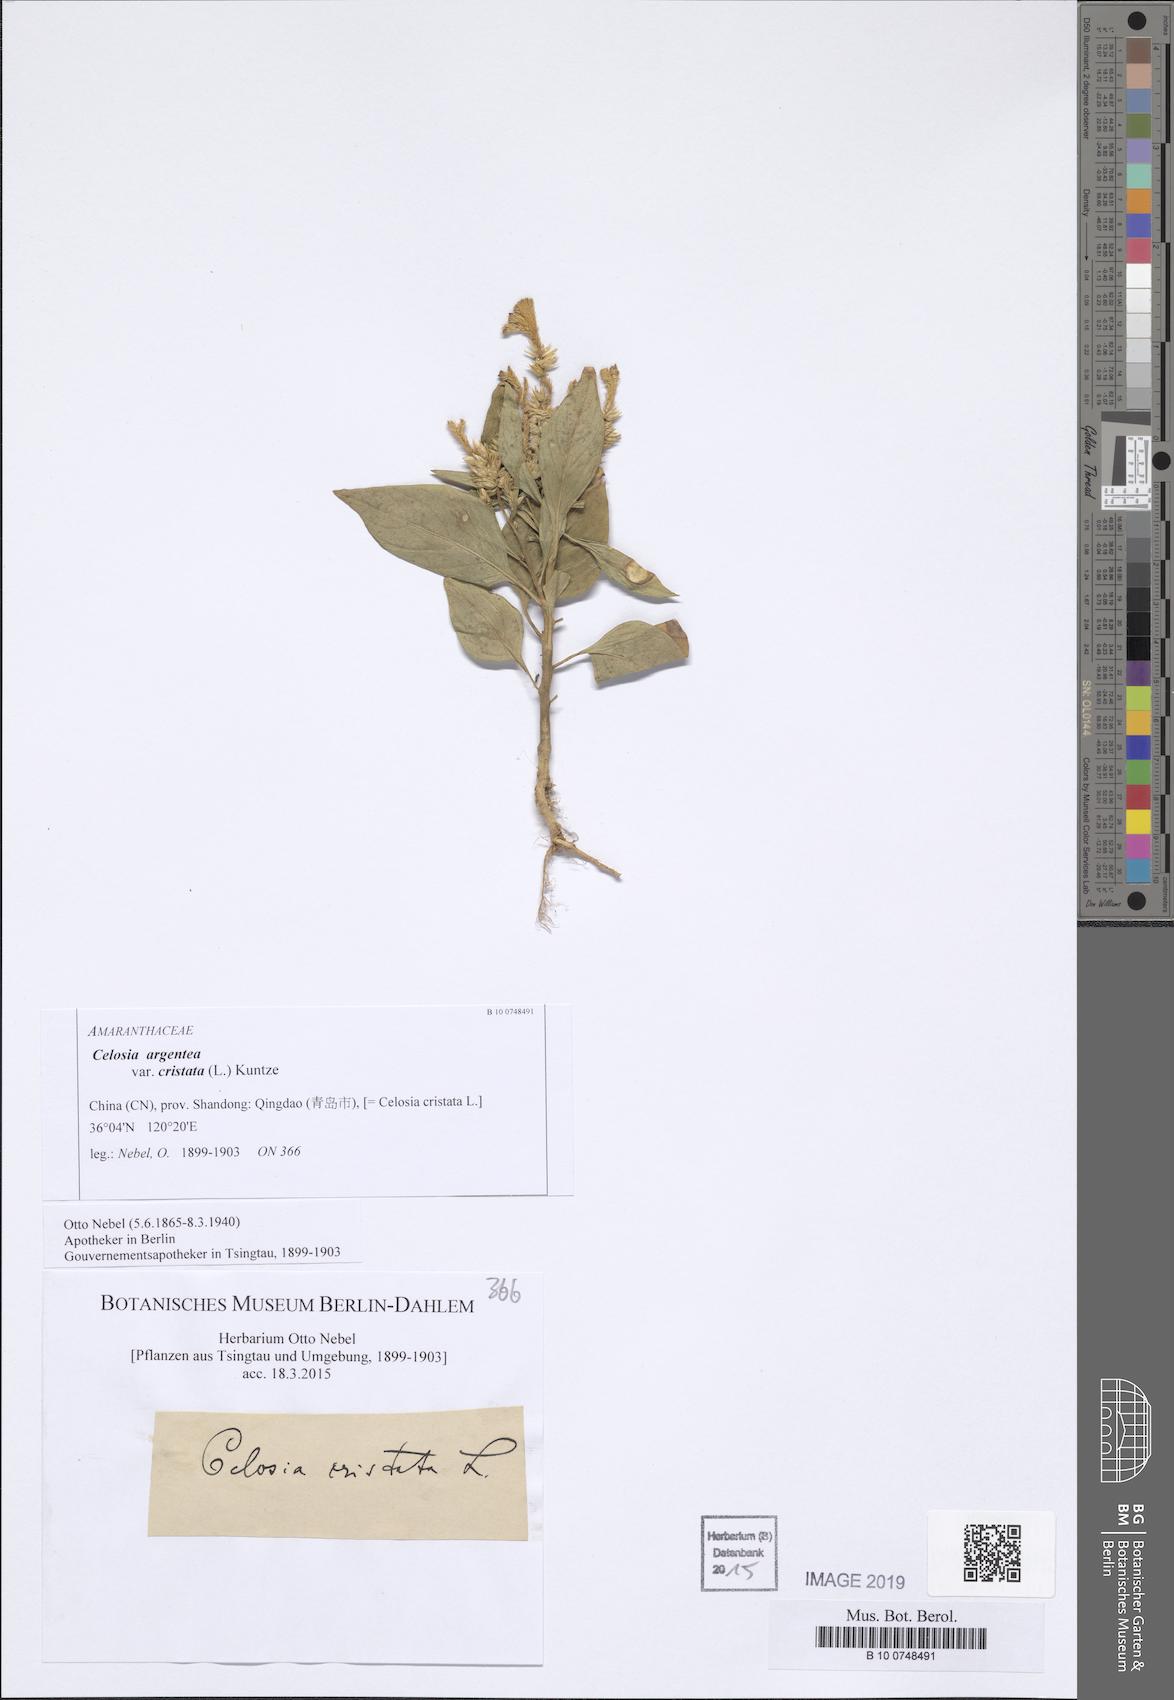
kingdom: Plantae
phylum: Tracheophyta
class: Magnoliopsida
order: Caryophyllales
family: Amaranthaceae
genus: Celosia
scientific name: Celosia argentea
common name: Feather cockscomb
